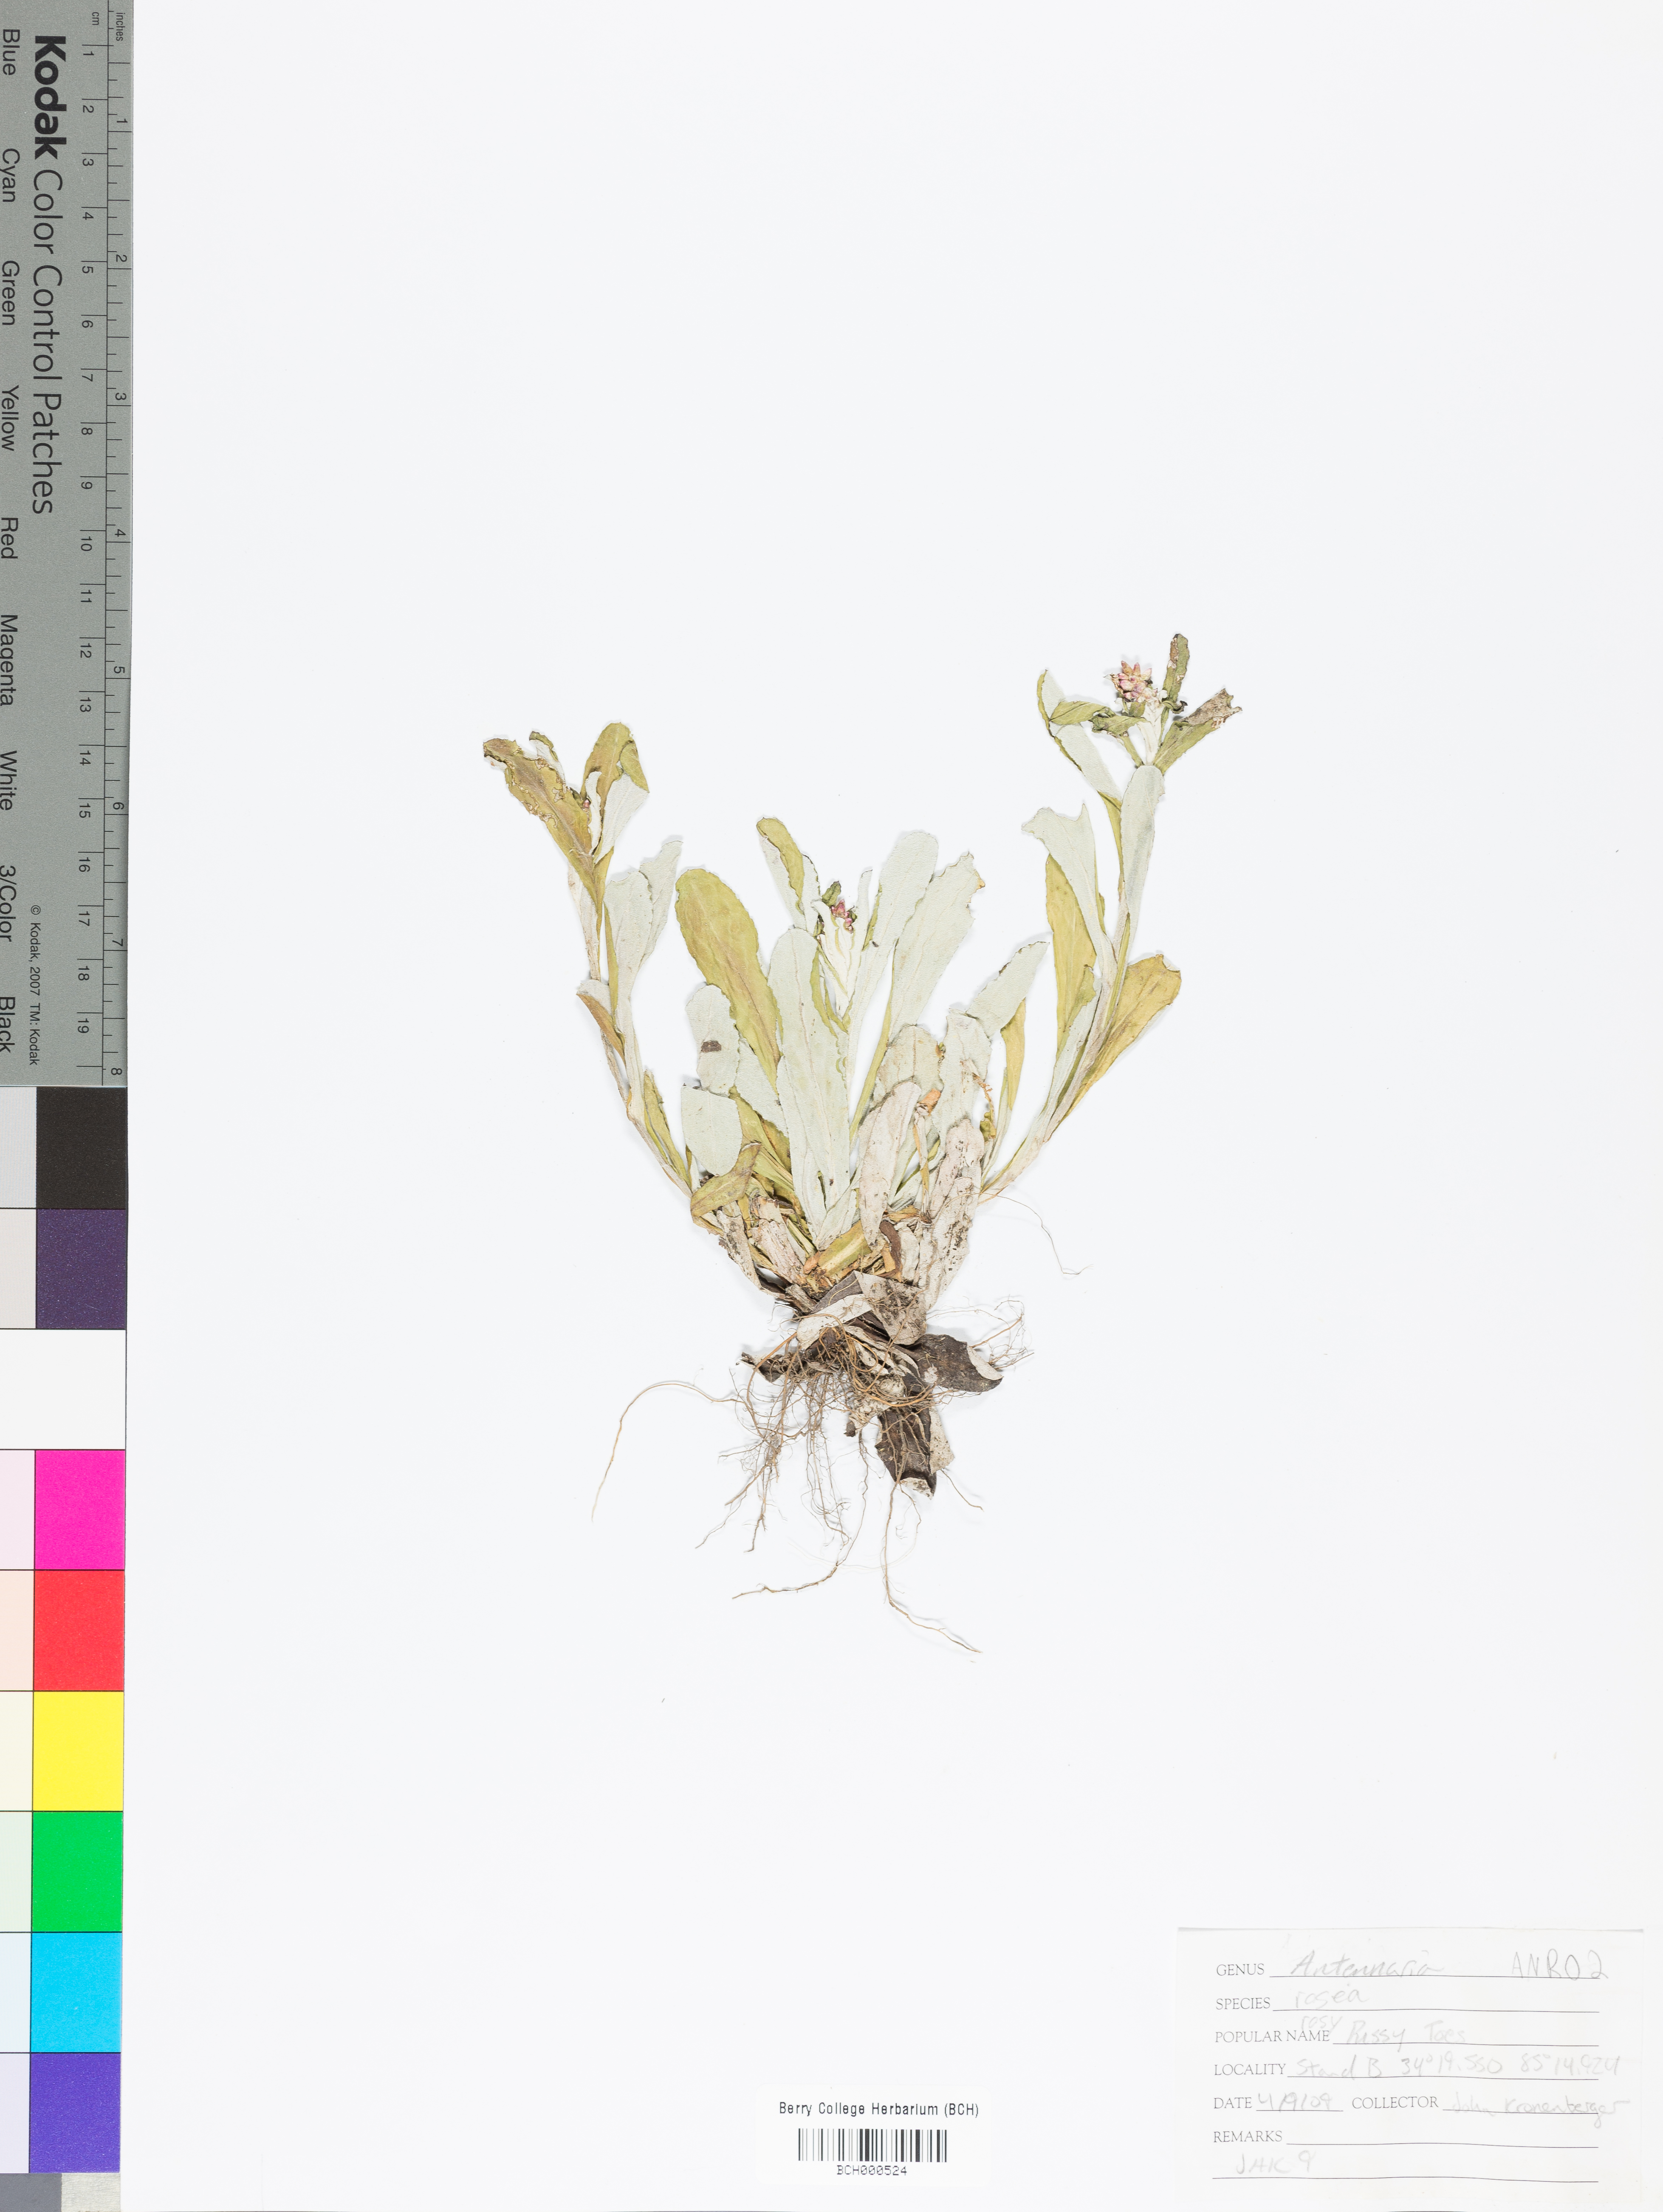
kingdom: Plantae
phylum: Tracheophyta
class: Magnoliopsida
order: Asterales
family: Asteraceae
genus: Antennaria
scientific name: Antennaria rosea
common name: Rosy pussytoes
